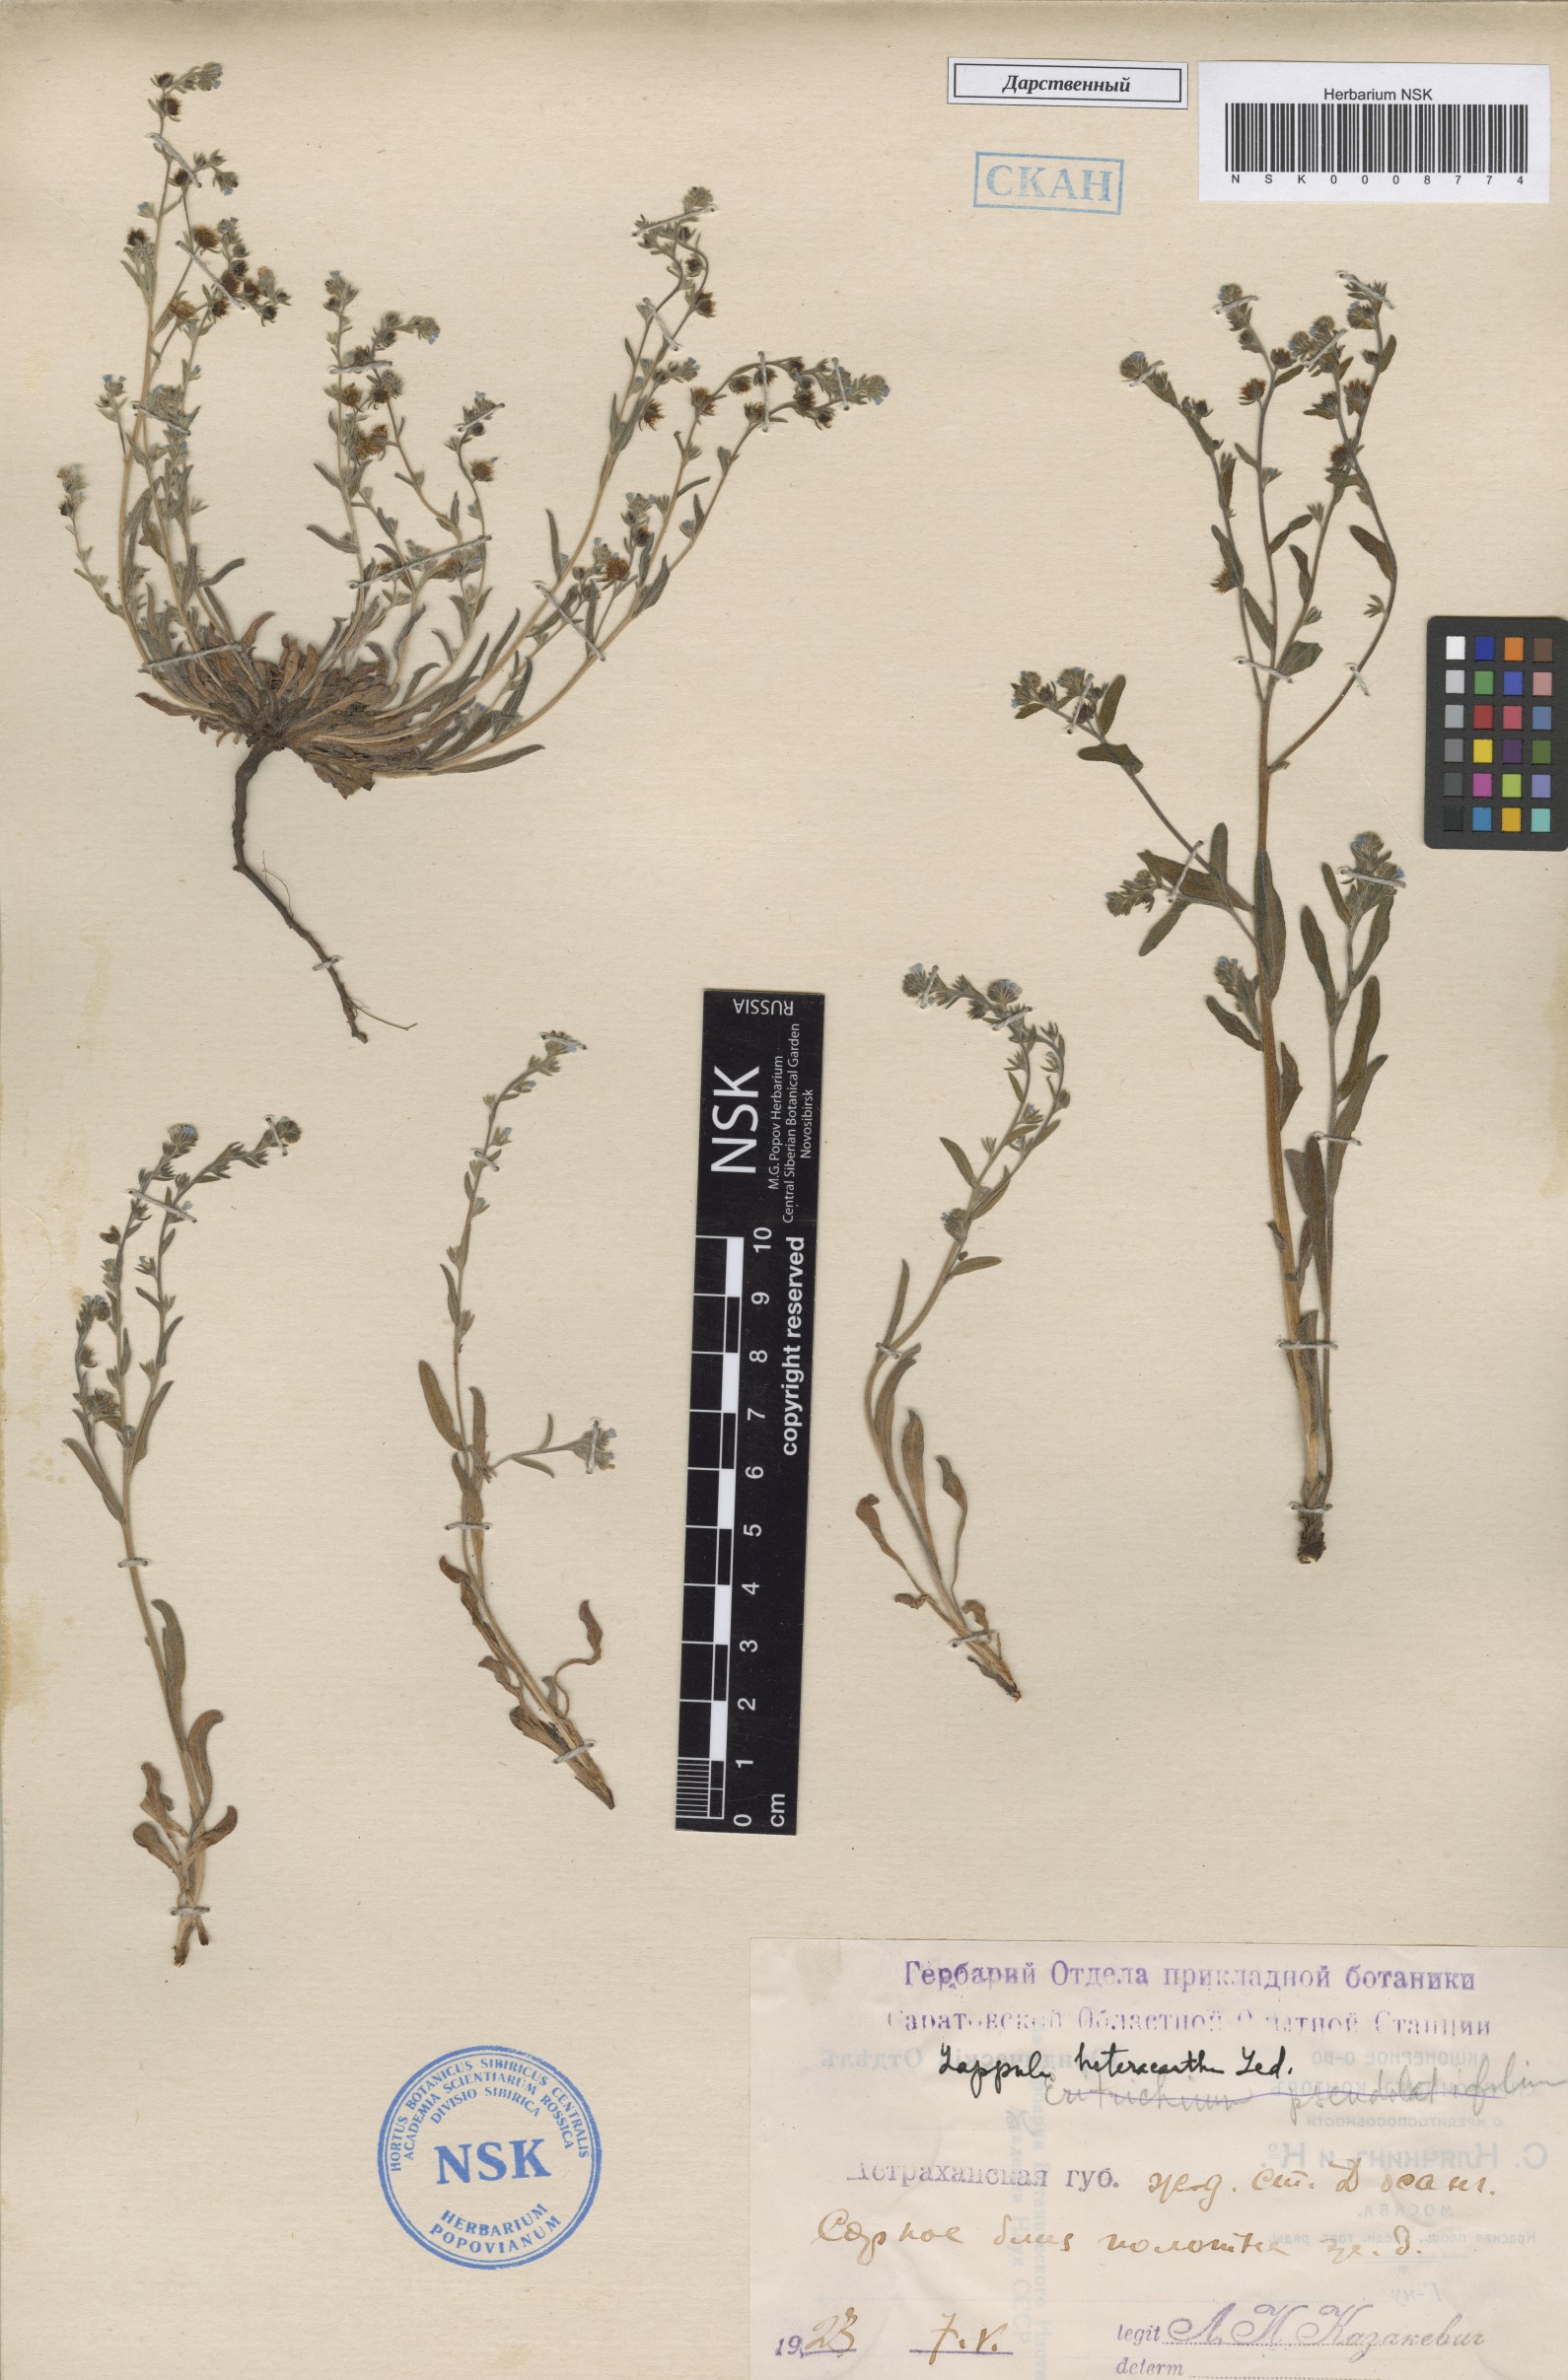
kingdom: Plantae
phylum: Tracheophyta
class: Magnoliopsida
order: Boraginales
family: Boraginaceae
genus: Lappula
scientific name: Lappula heteracantha
